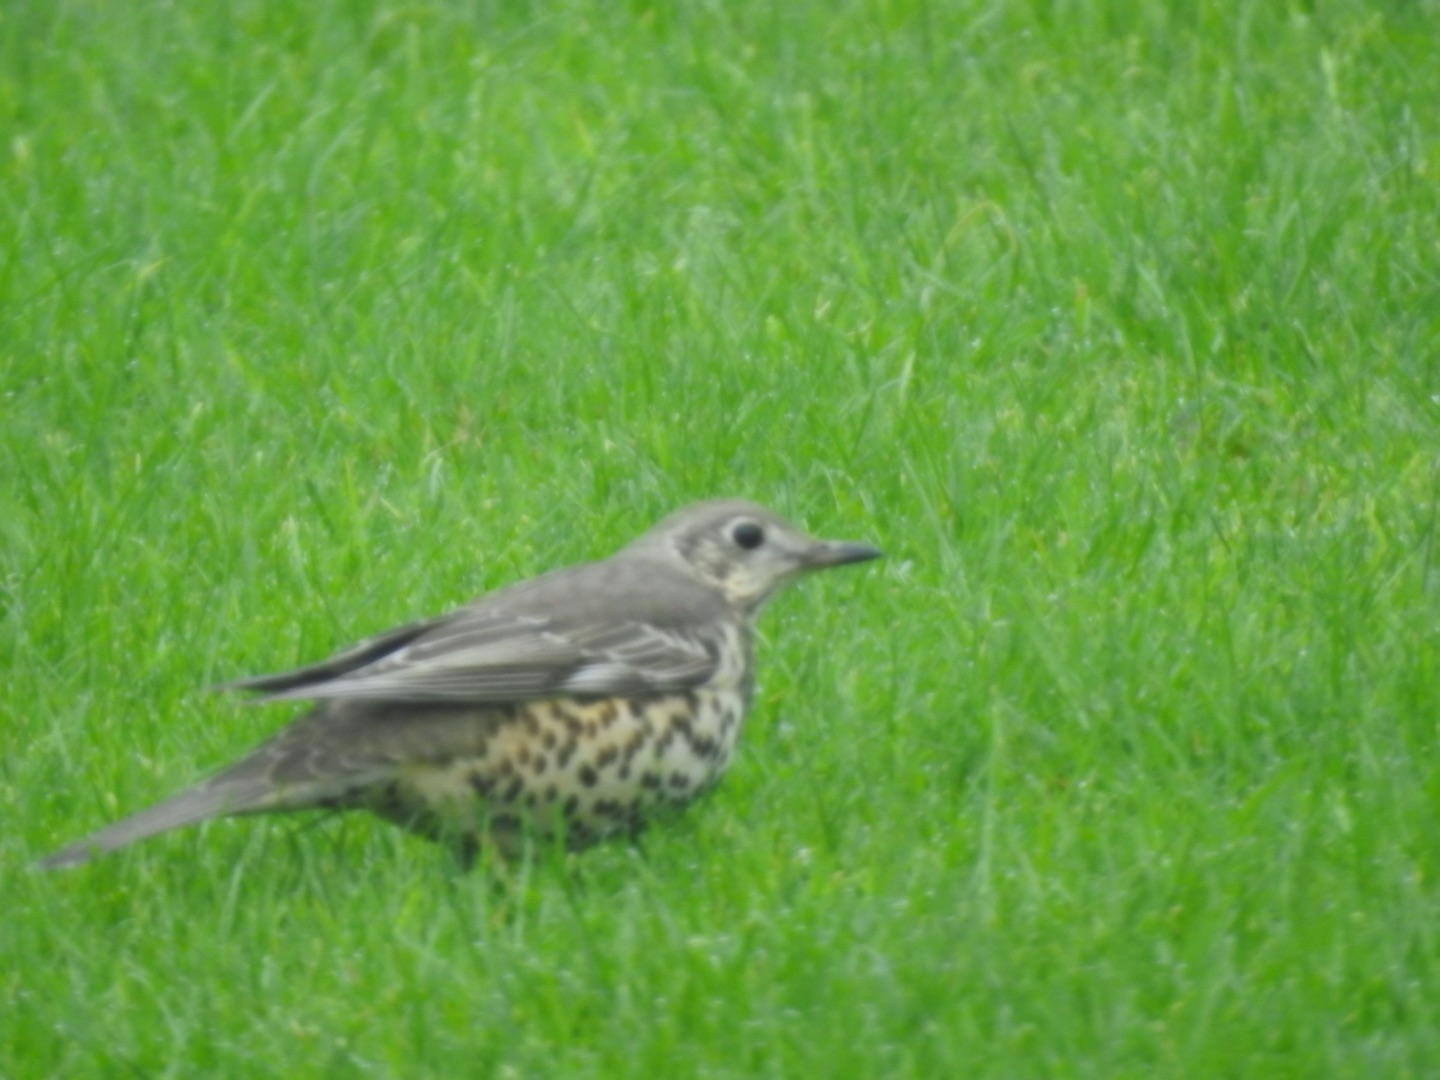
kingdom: Animalia
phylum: Chordata
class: Aves
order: Passeriformes
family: Turdidae
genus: Turdus
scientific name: Turdus viscivorus
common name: Misteldrossel
